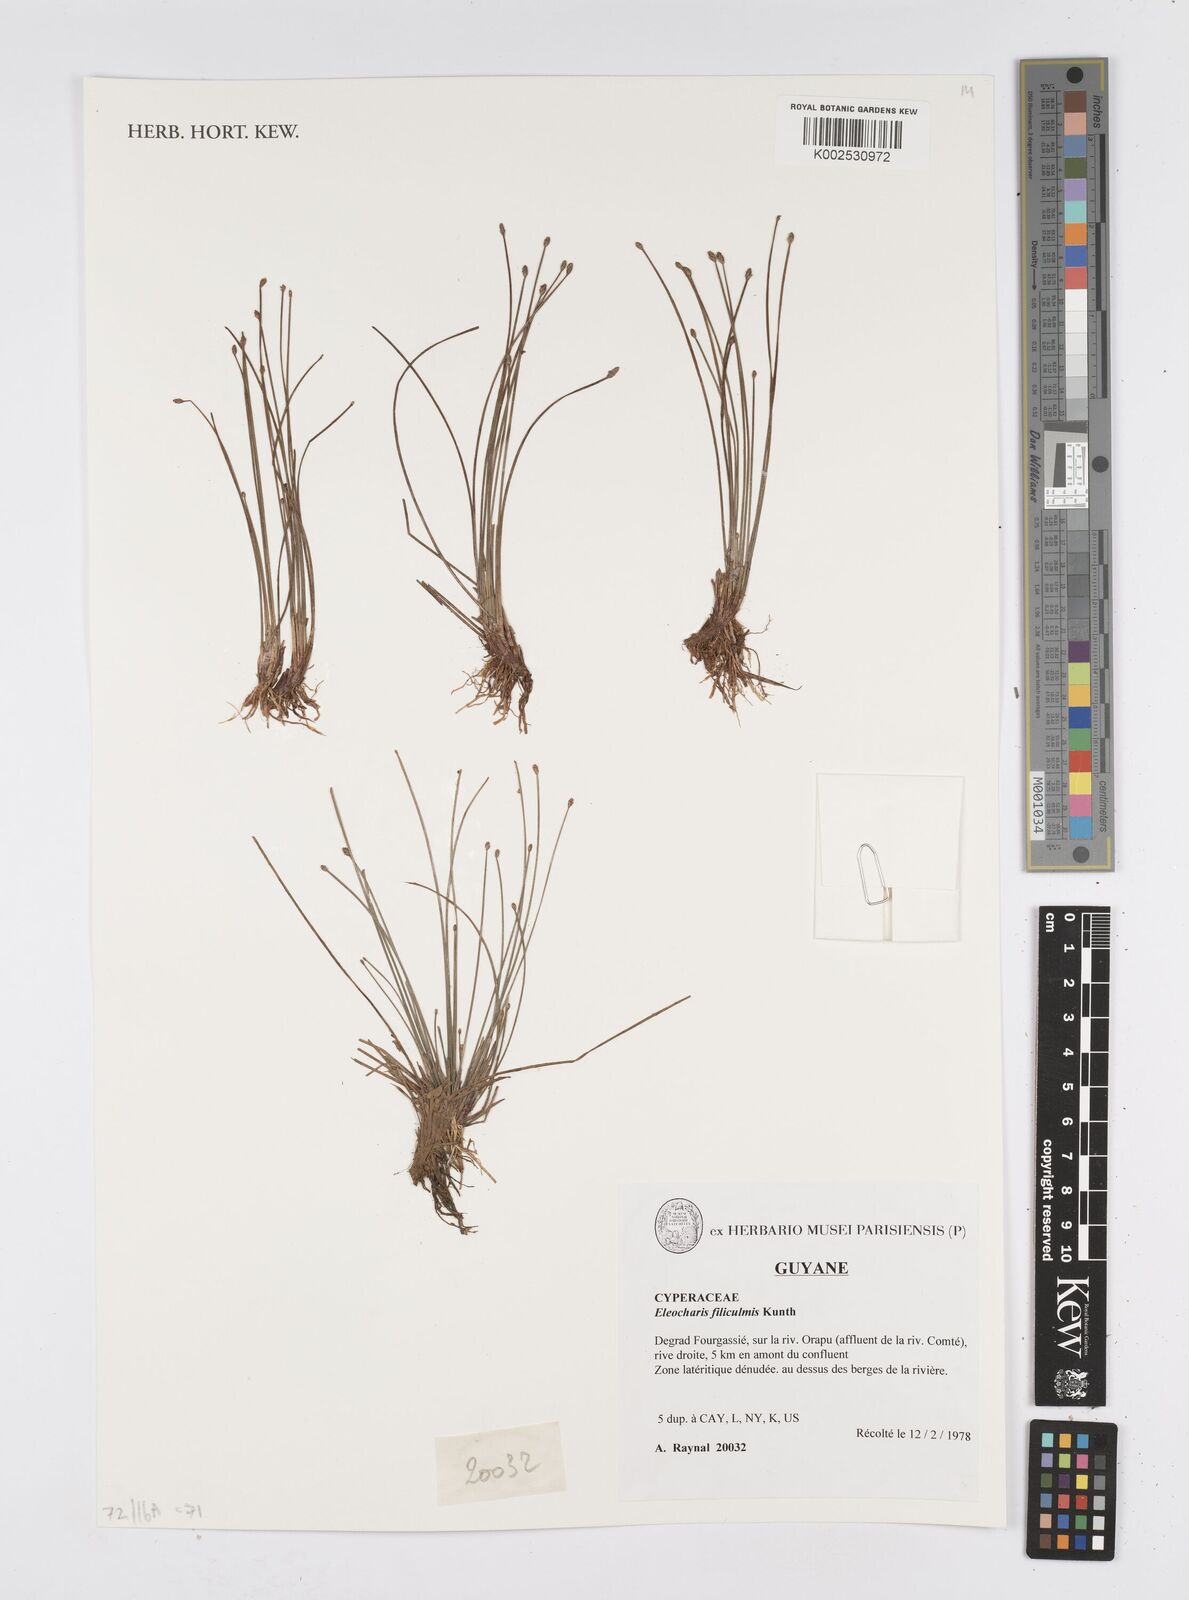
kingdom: Plantae
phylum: Tracheophyta
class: Liliopsida
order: Poales
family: Cyperaceae
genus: Eleocharis
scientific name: Eleocharis tenuis
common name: Dog's hair
